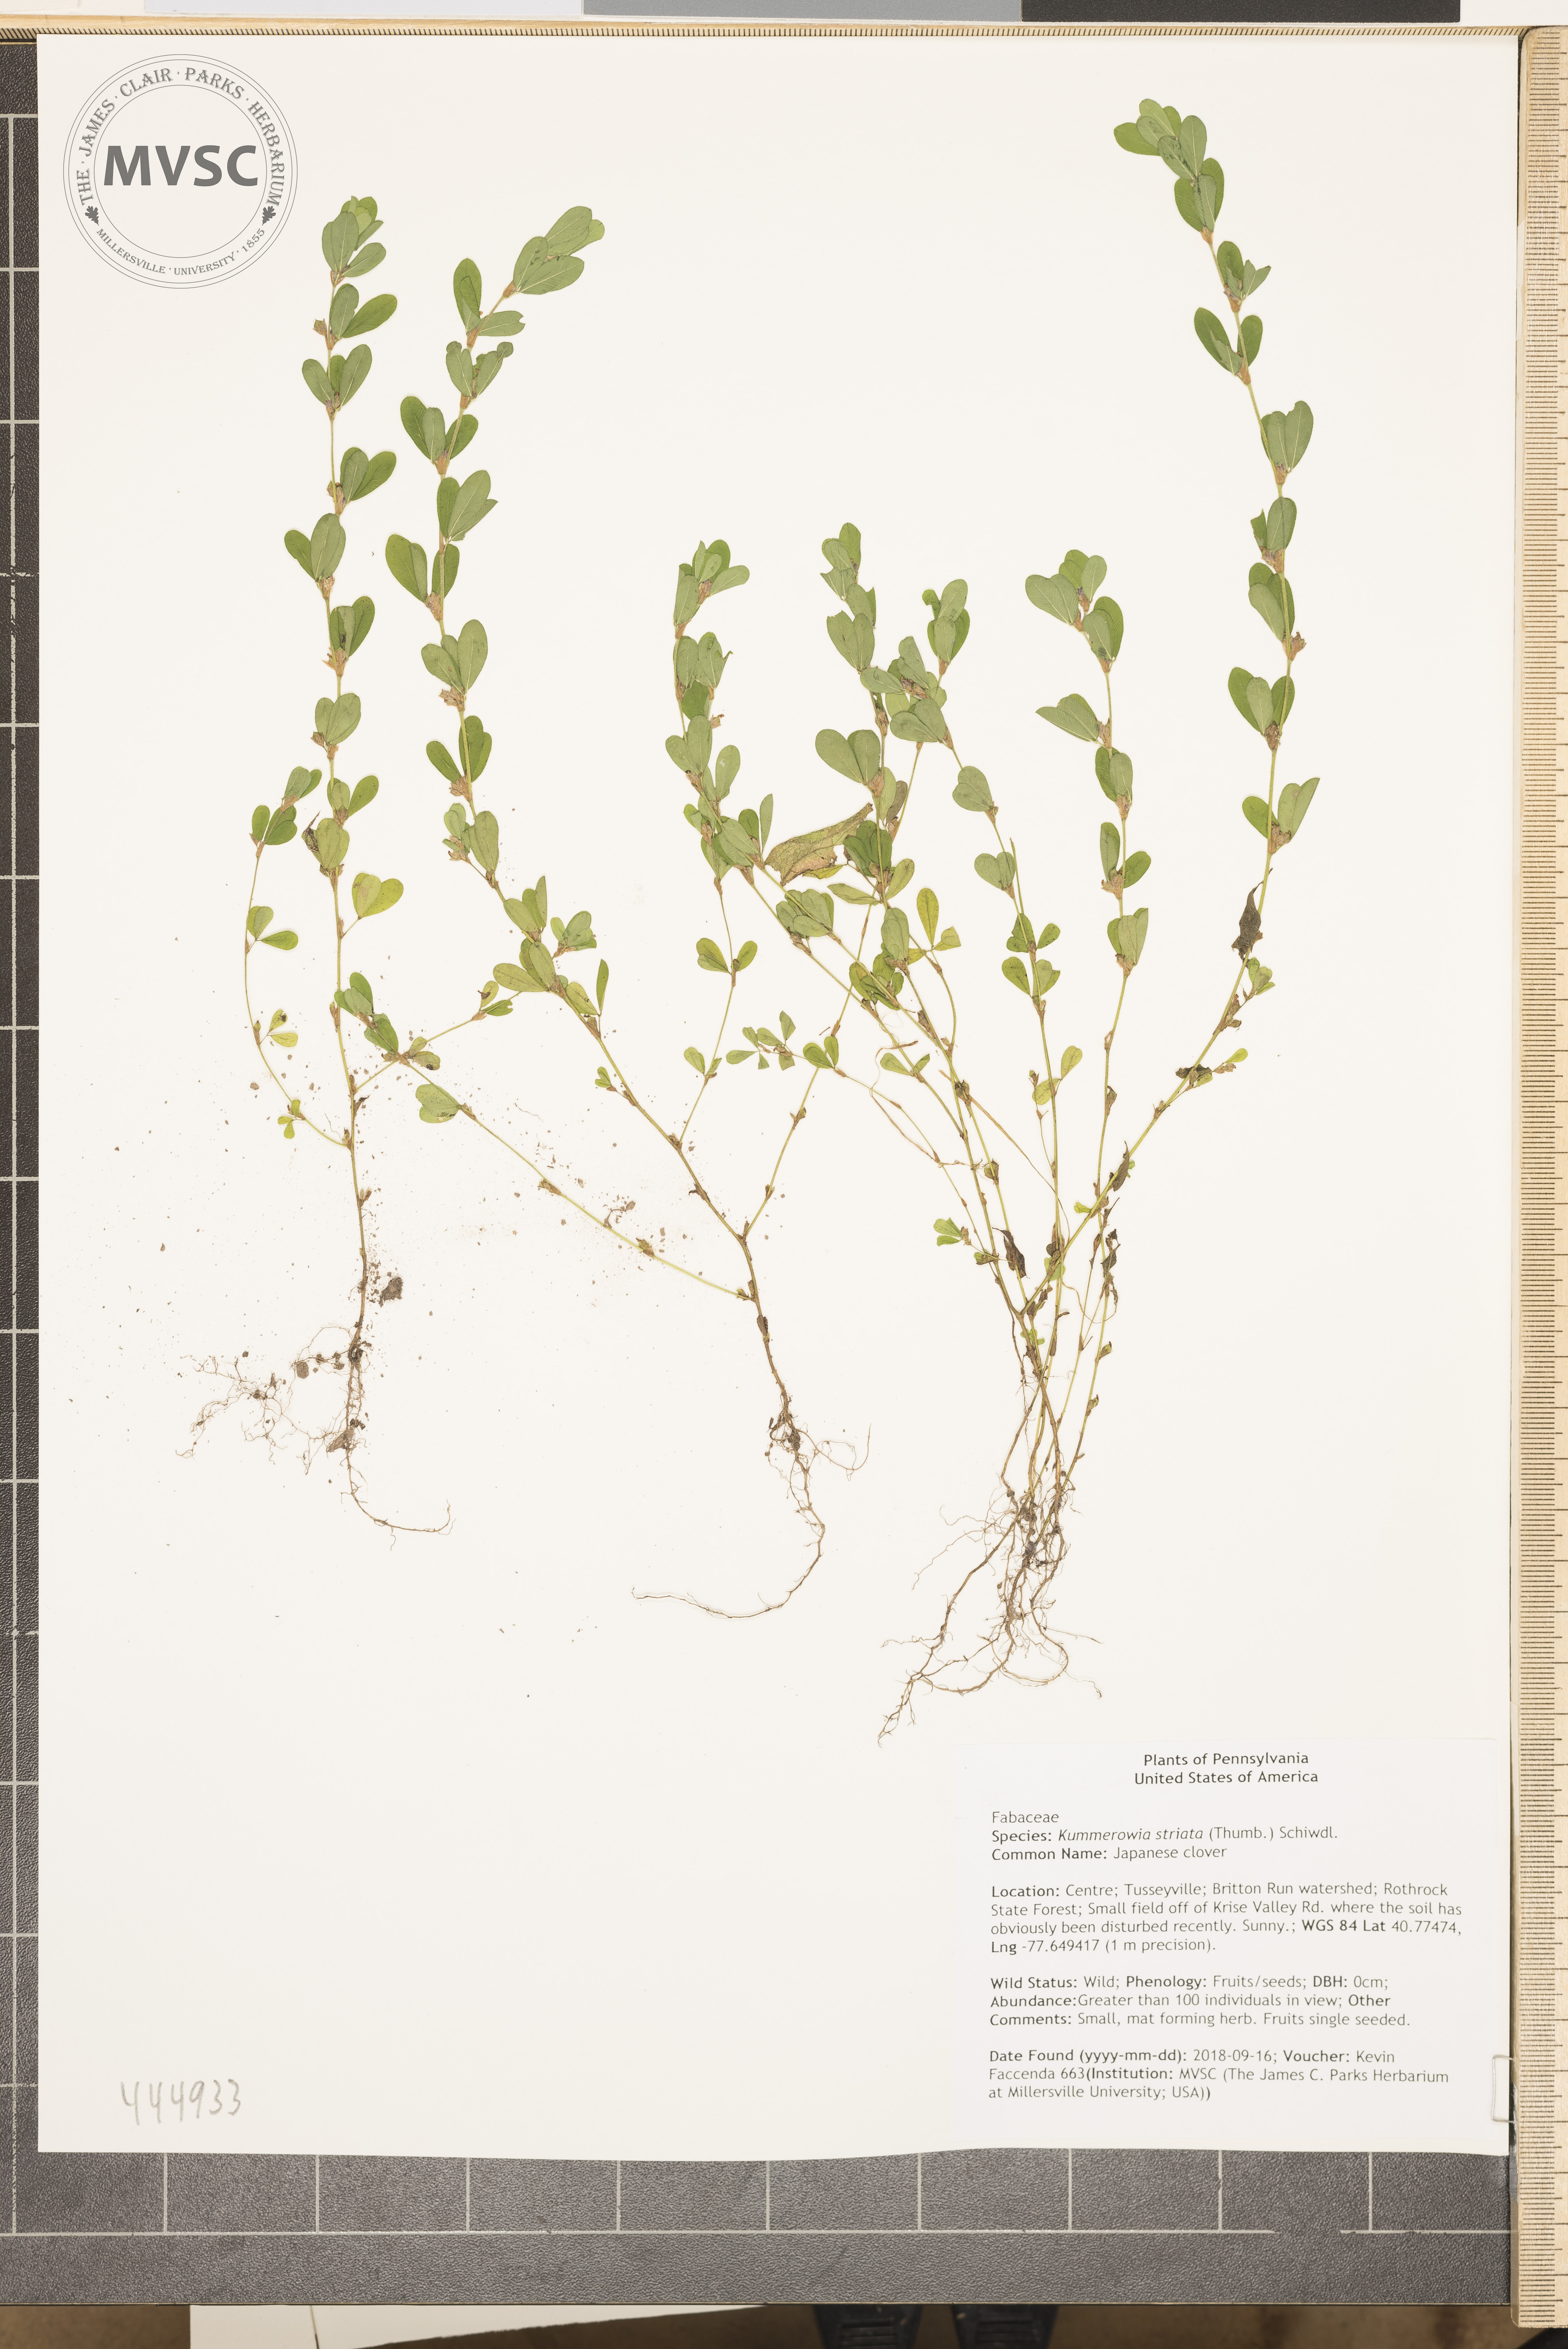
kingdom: Plantae
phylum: Tracheophyta
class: Magnoliopsida
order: Fabales
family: Fabaceae
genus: Kummerowia
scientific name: Kummerowia striata
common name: Japanese clover
